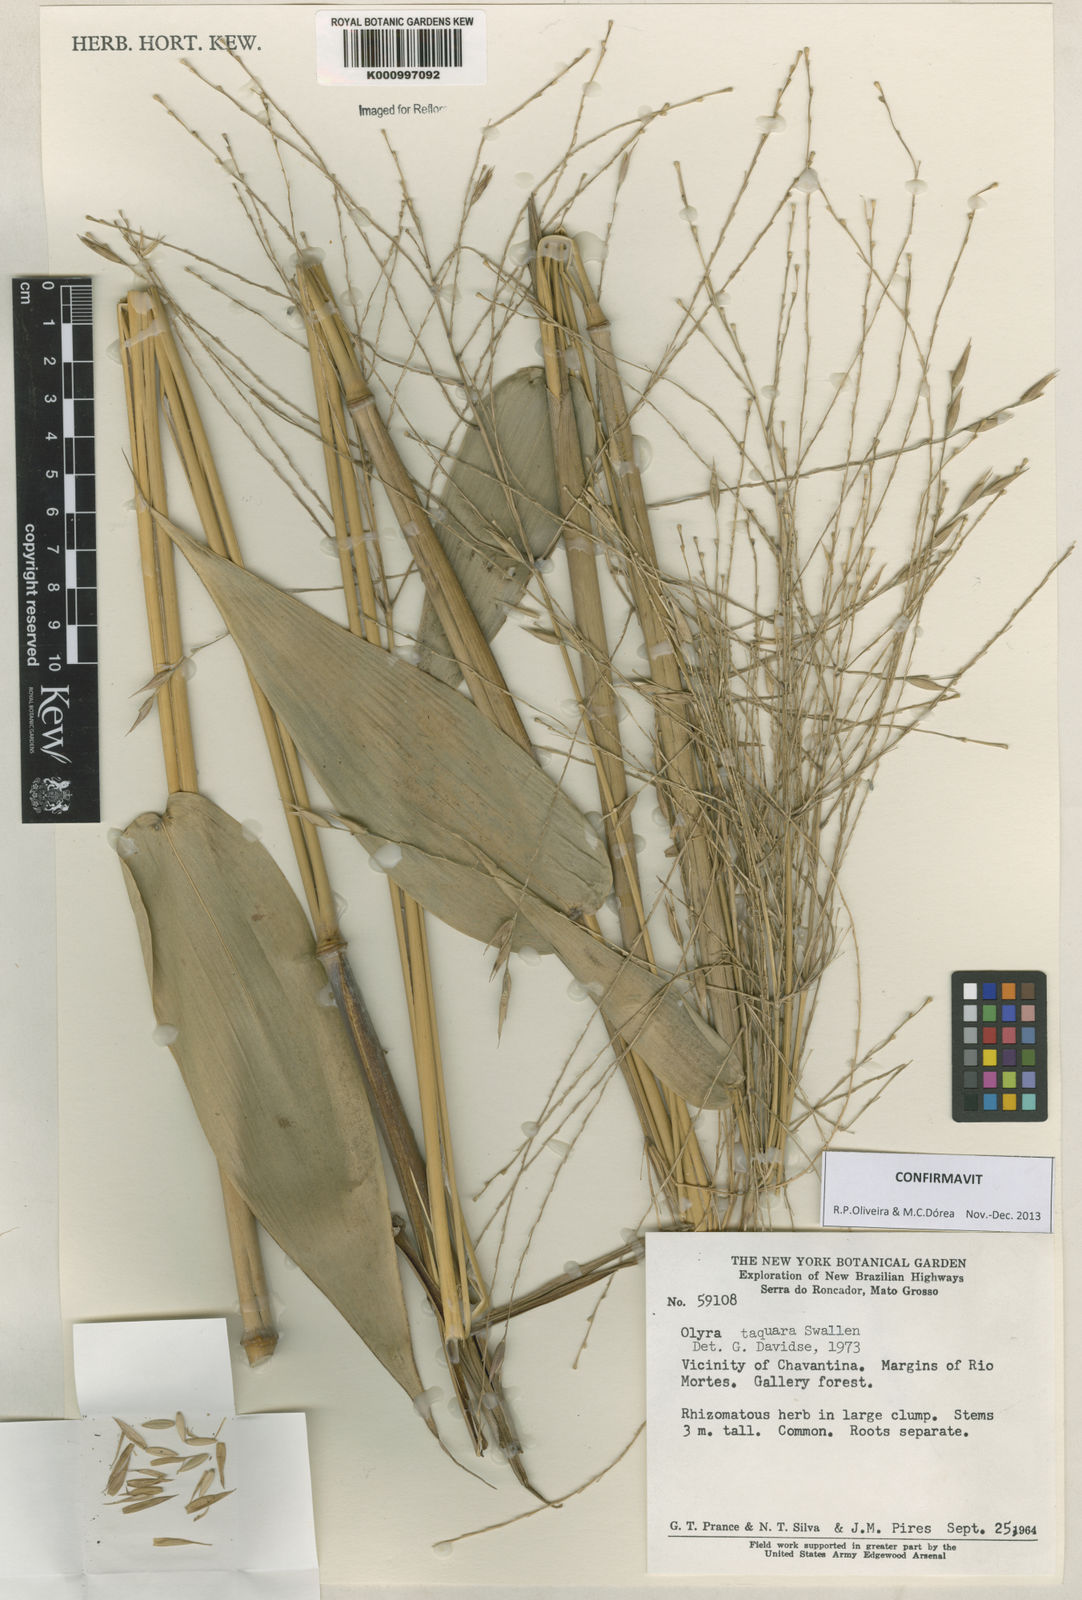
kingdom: Plantae
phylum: Tracheophyta
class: Liliopsida
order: Poales
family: Poaceae
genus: Olyra
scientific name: Olyra taquara
